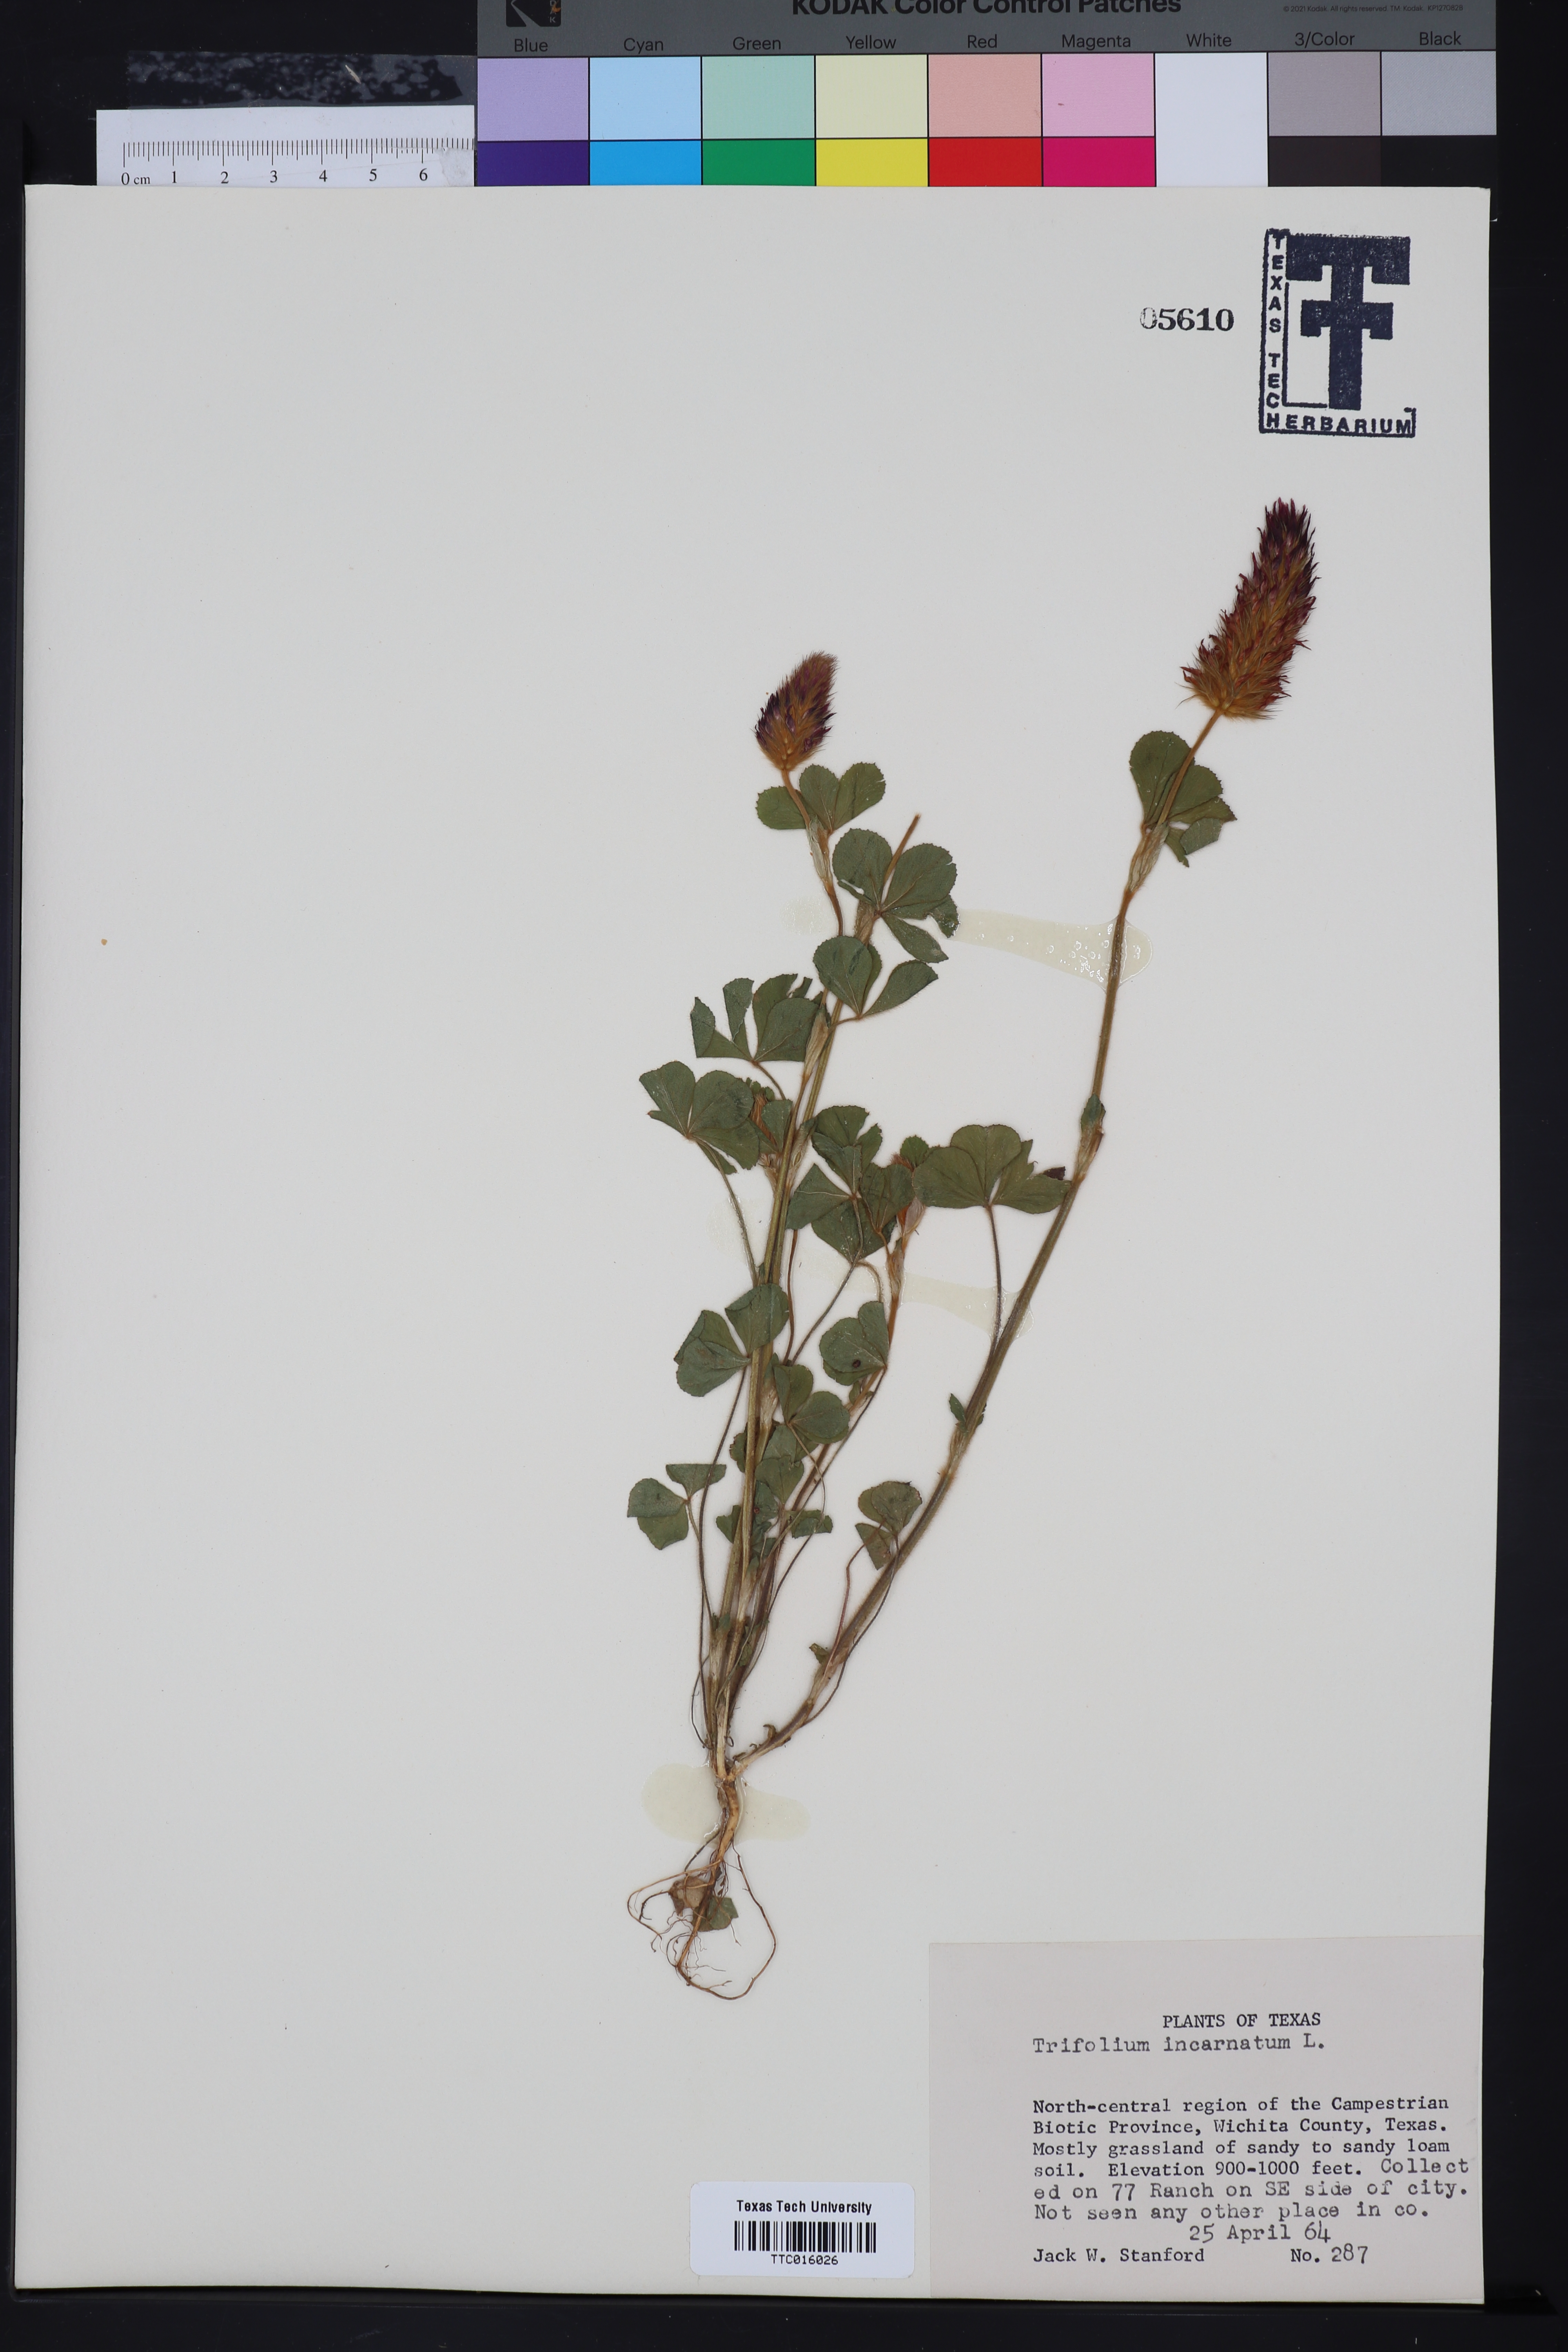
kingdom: Plantae
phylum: Tracheophyta
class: Magnoliopsida
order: Fabales
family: Fabaceae
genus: Trifolium
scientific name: Trifolium incarnatum
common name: Crimson clover
